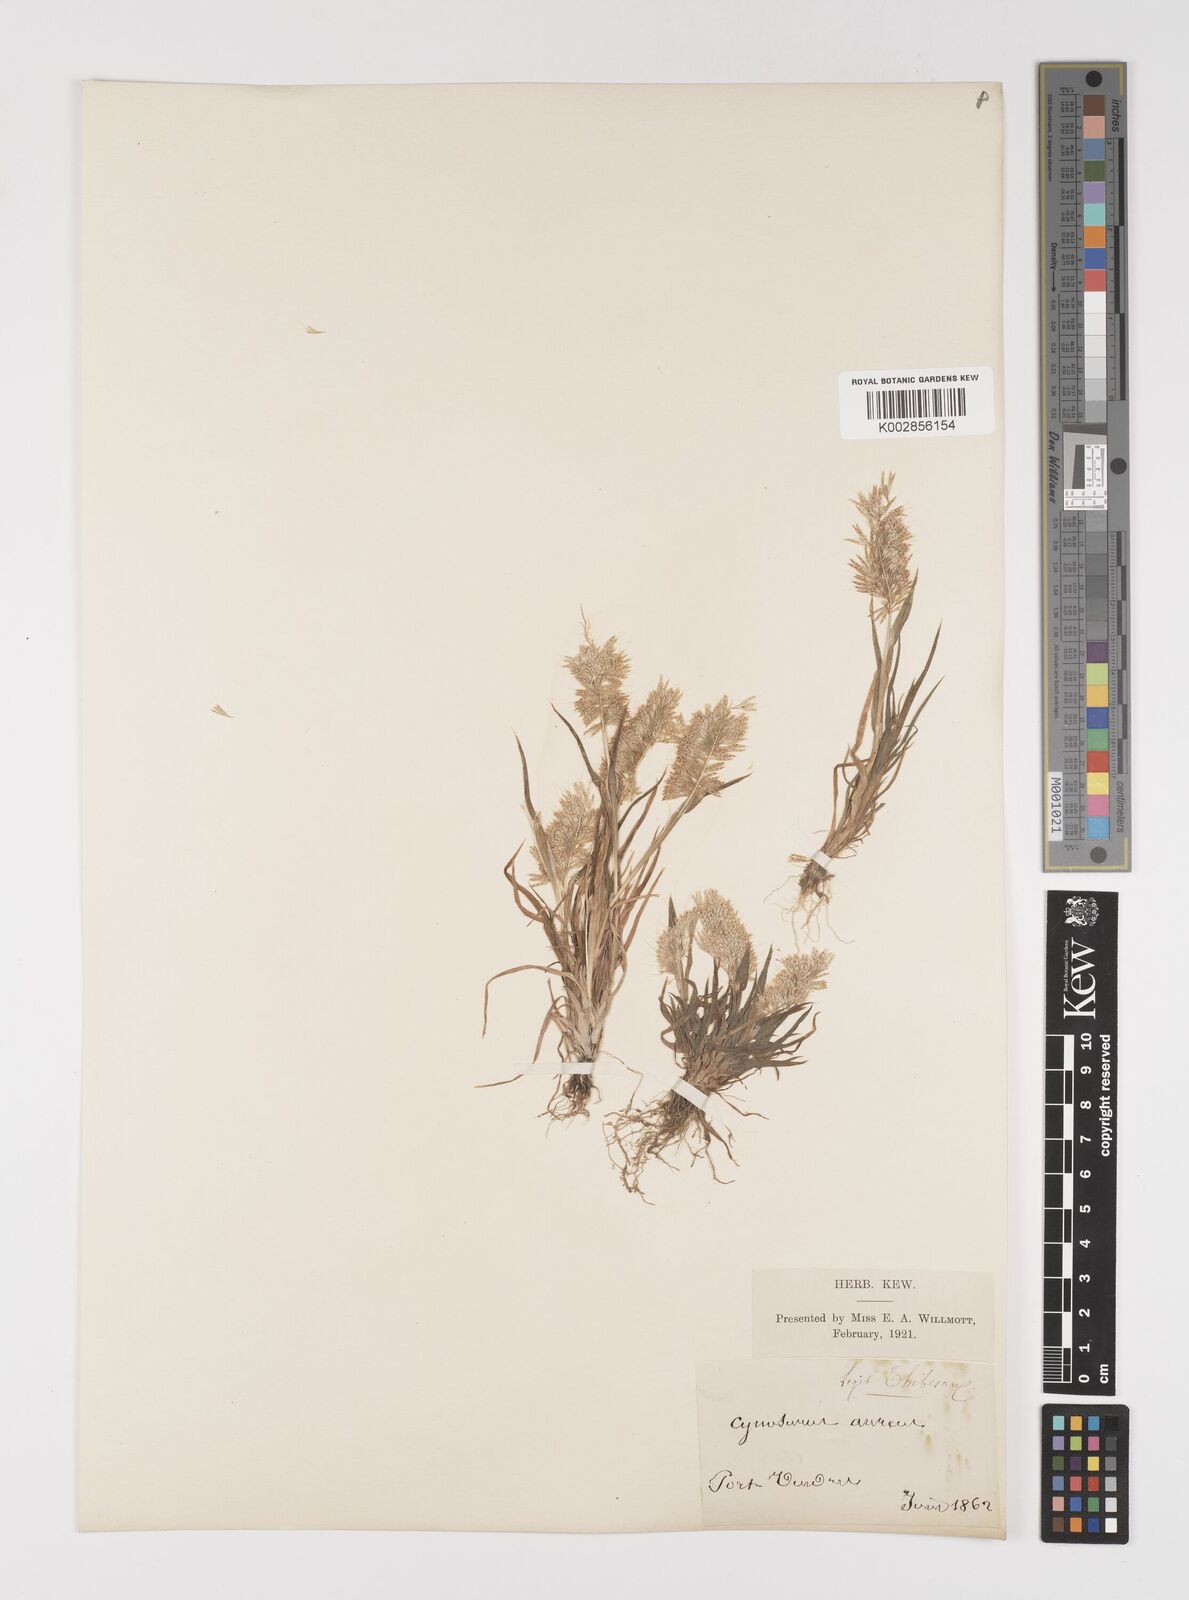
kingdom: Plantae
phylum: Tracheophyta
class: Liliopsida
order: Poales
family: Poaceae
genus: Lamarckia
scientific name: Lamarckia aurea
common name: Golden dog's-tail
